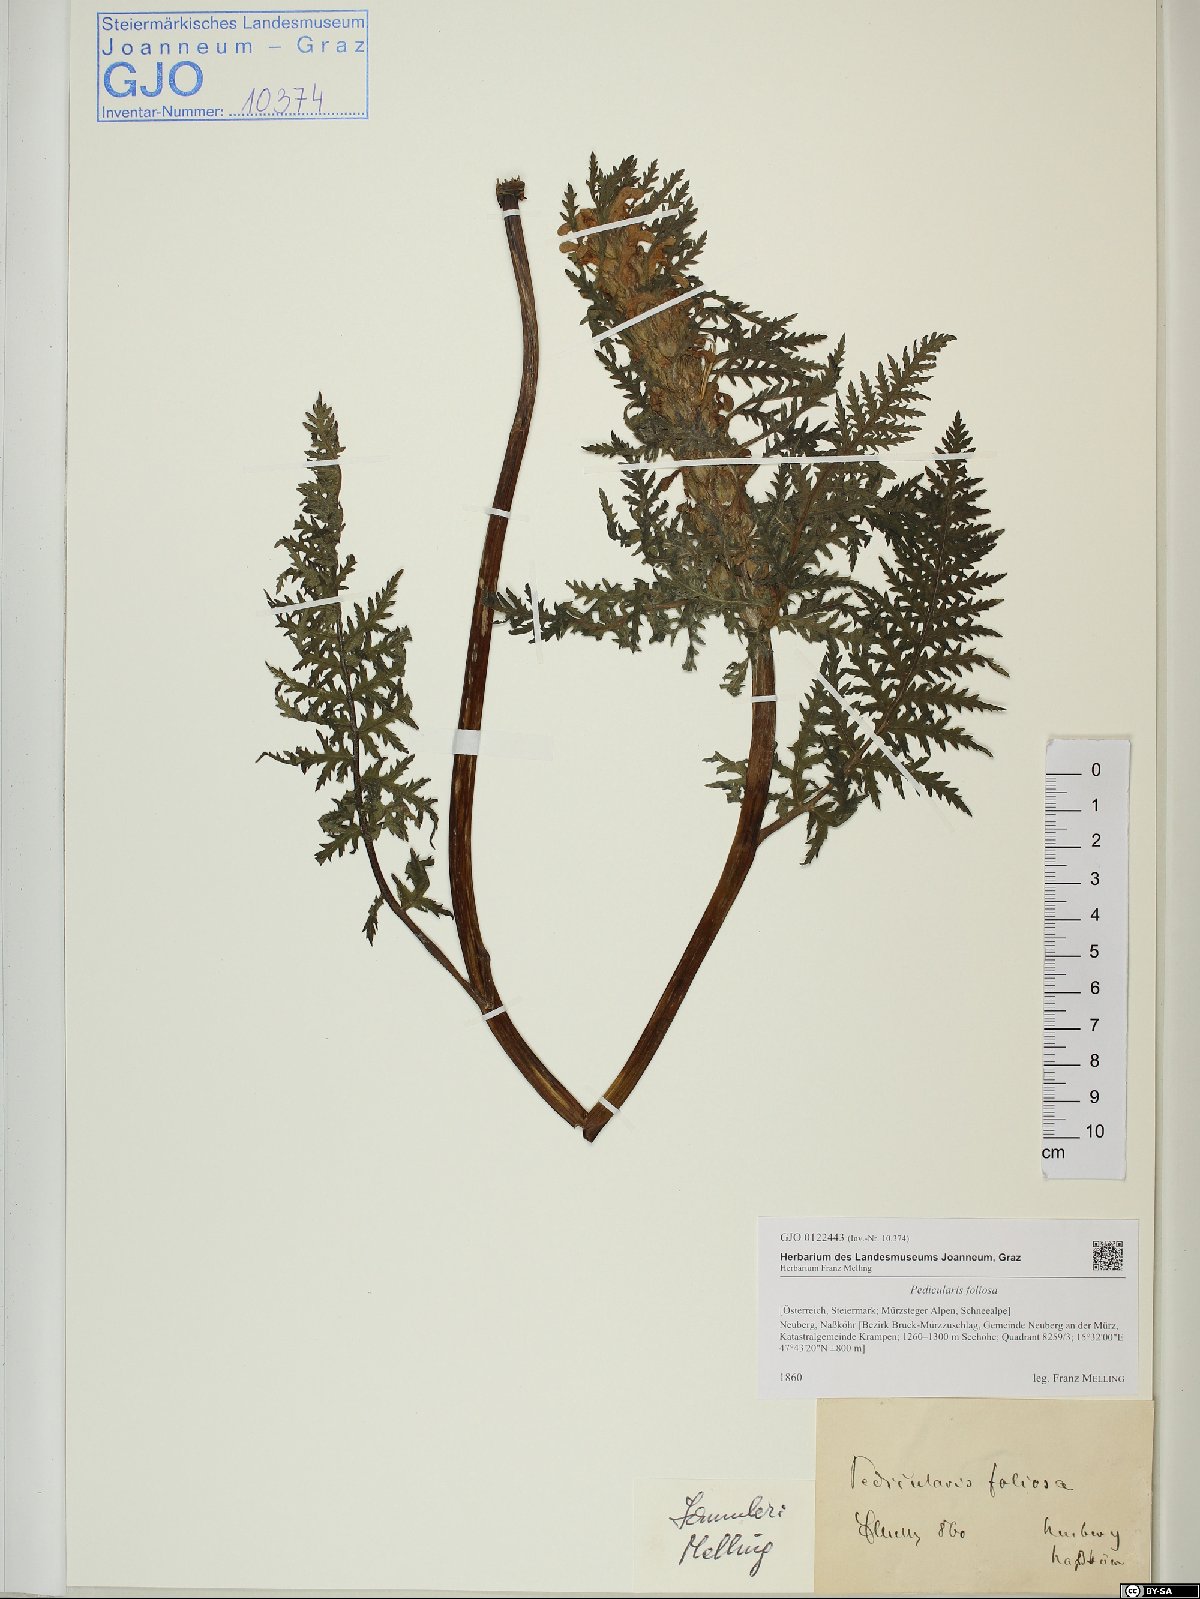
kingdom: Plantae
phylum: Tracheophyta
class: Magnoliopsida
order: Lamiales
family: Orobanchaceae
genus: Pedicularis
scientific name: Pedicularis foliosa
